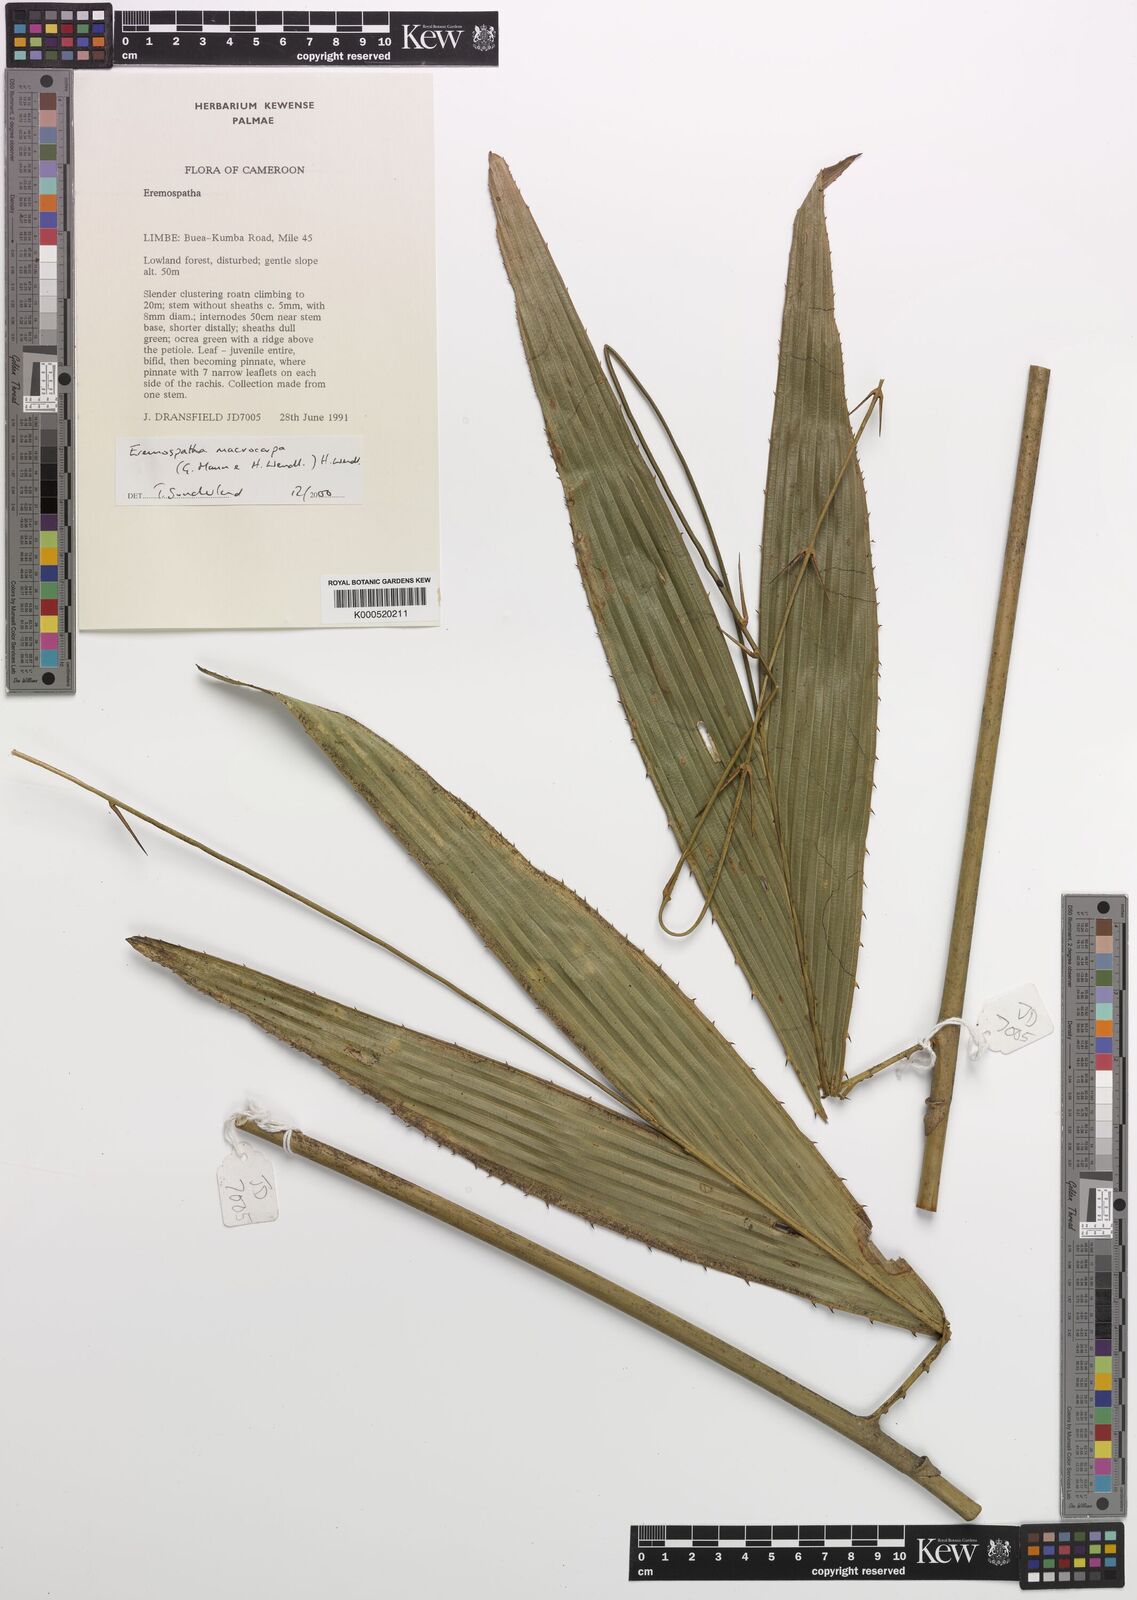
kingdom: Plantae
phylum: Tracheophyta
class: Liliopsida
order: Arecales
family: Arecaceae
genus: Eremospatha
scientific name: Eremospatha
